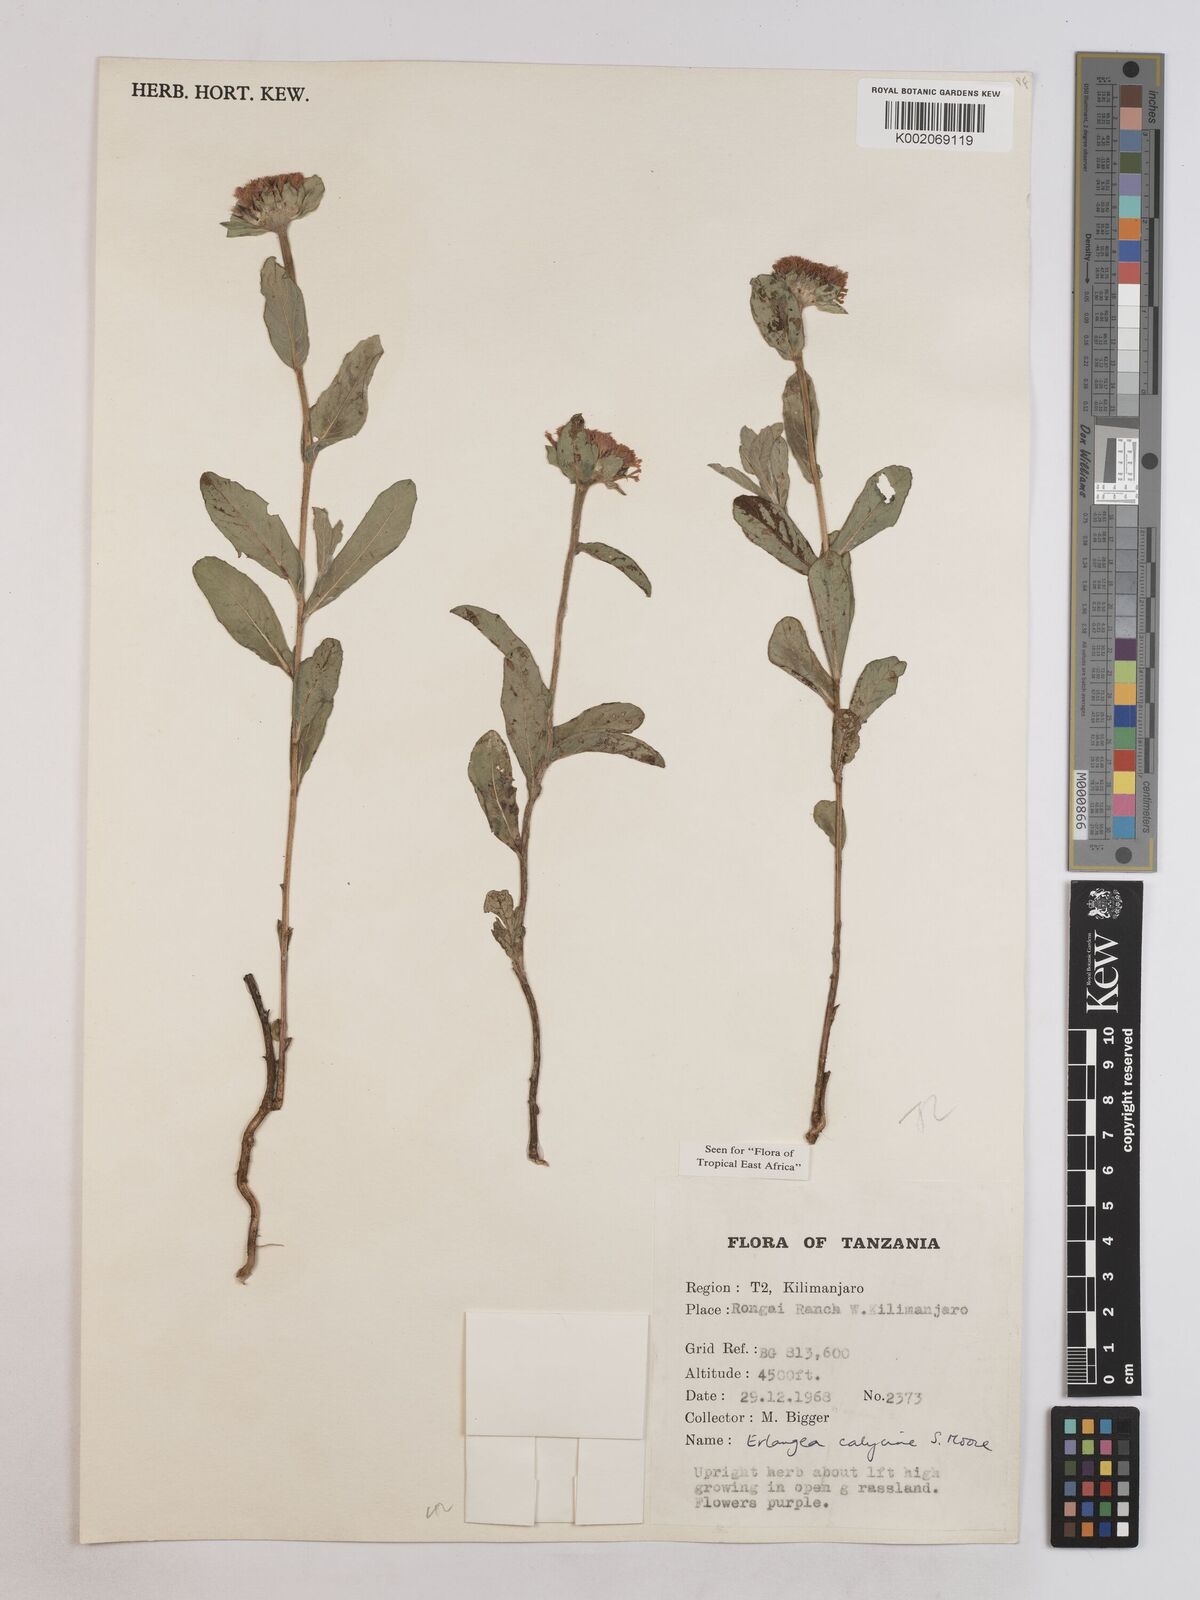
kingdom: Plantae
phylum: Tracheophyta
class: Magnoliopsida
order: Asterales
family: Asteraceae
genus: Erlangea
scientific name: Erlangea calycina
